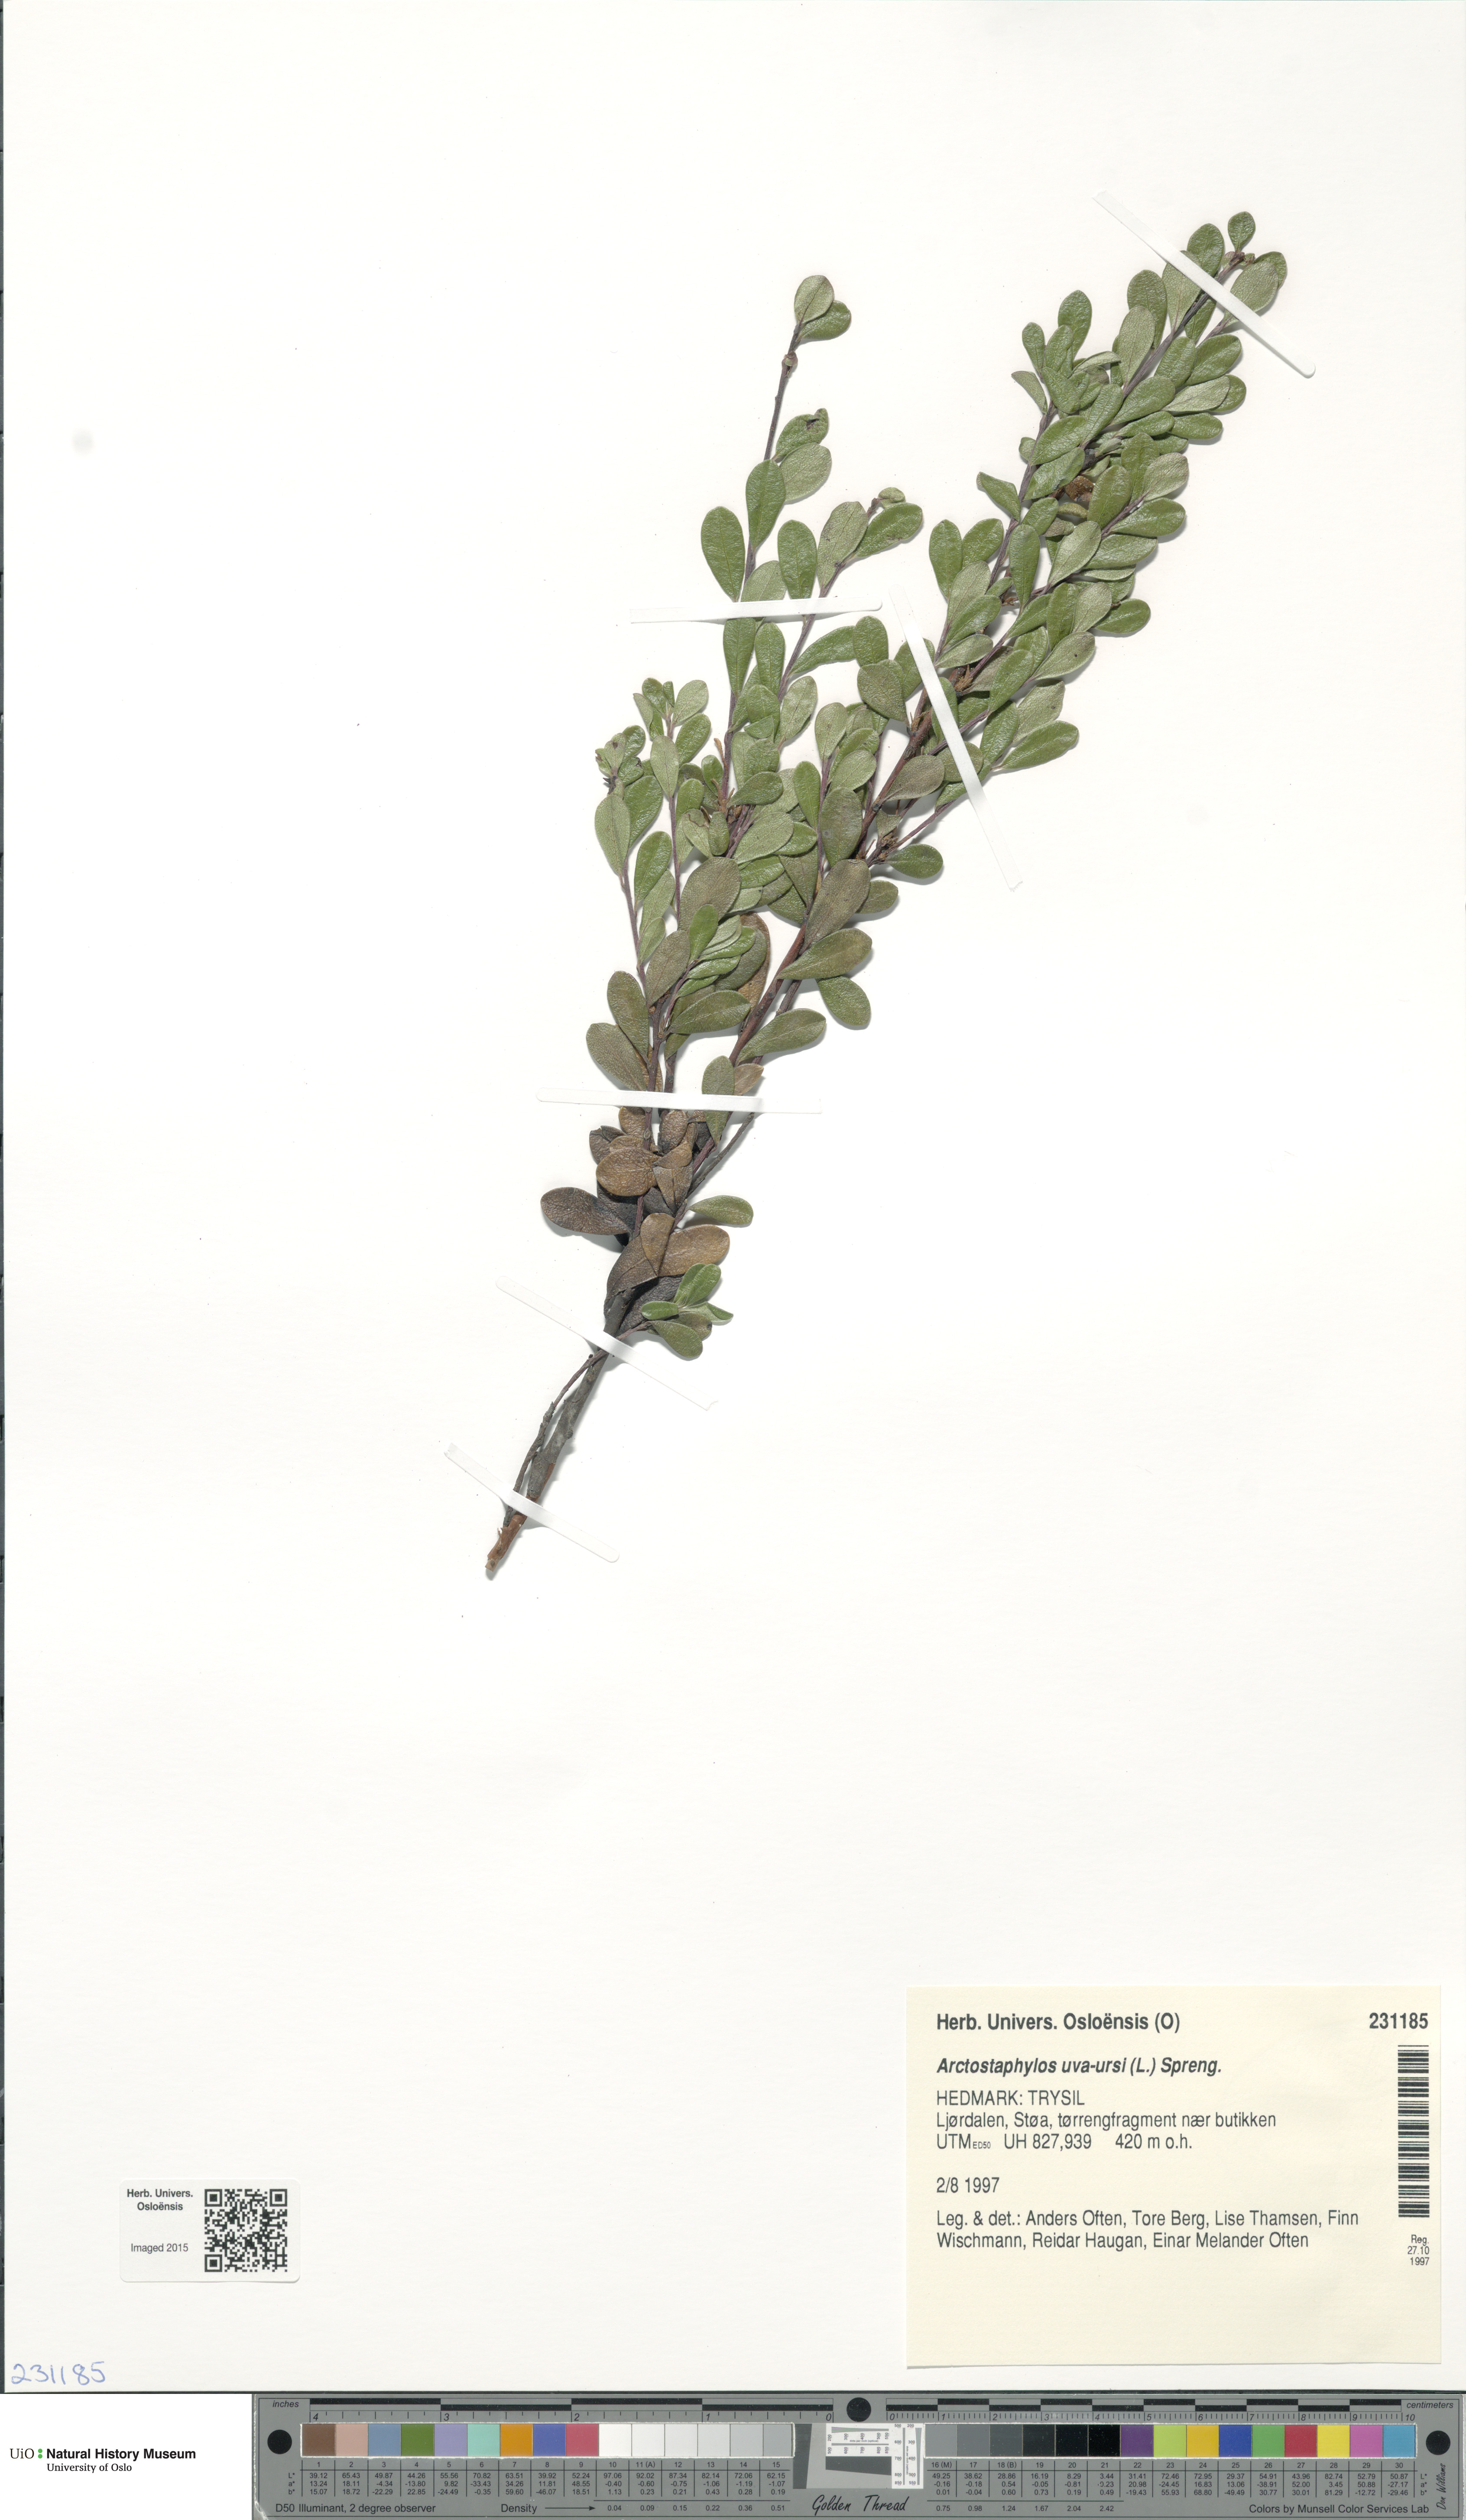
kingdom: Plantae
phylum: Tracheophyta
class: Magnoliopsida
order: Ericales
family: Ericaceae
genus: Arctostaphylos
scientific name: Arctostaphylos uva-ursi
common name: Bearberry
